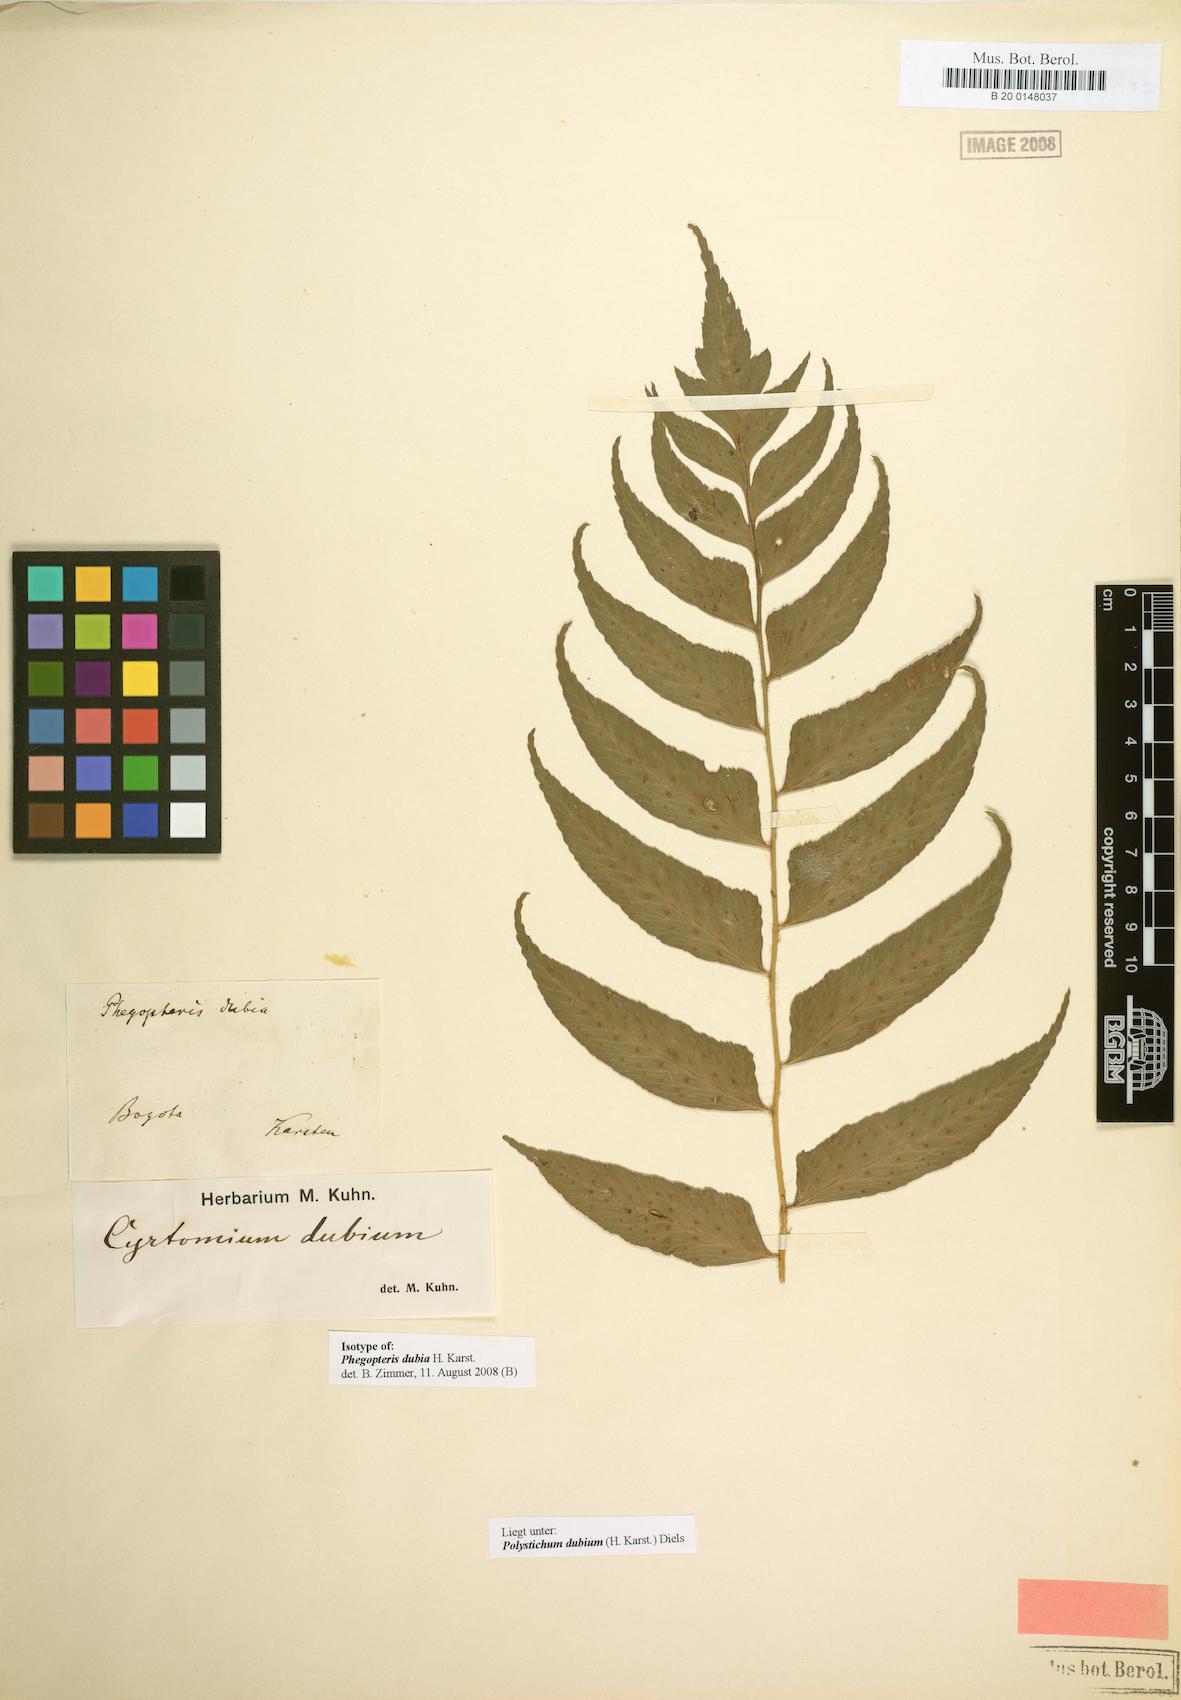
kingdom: Plantae
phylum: Tracheophyta
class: Polypodiopsida
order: Polypodiales
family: Dryopteridaceae
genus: Polystichum
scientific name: Polystichum dubium
